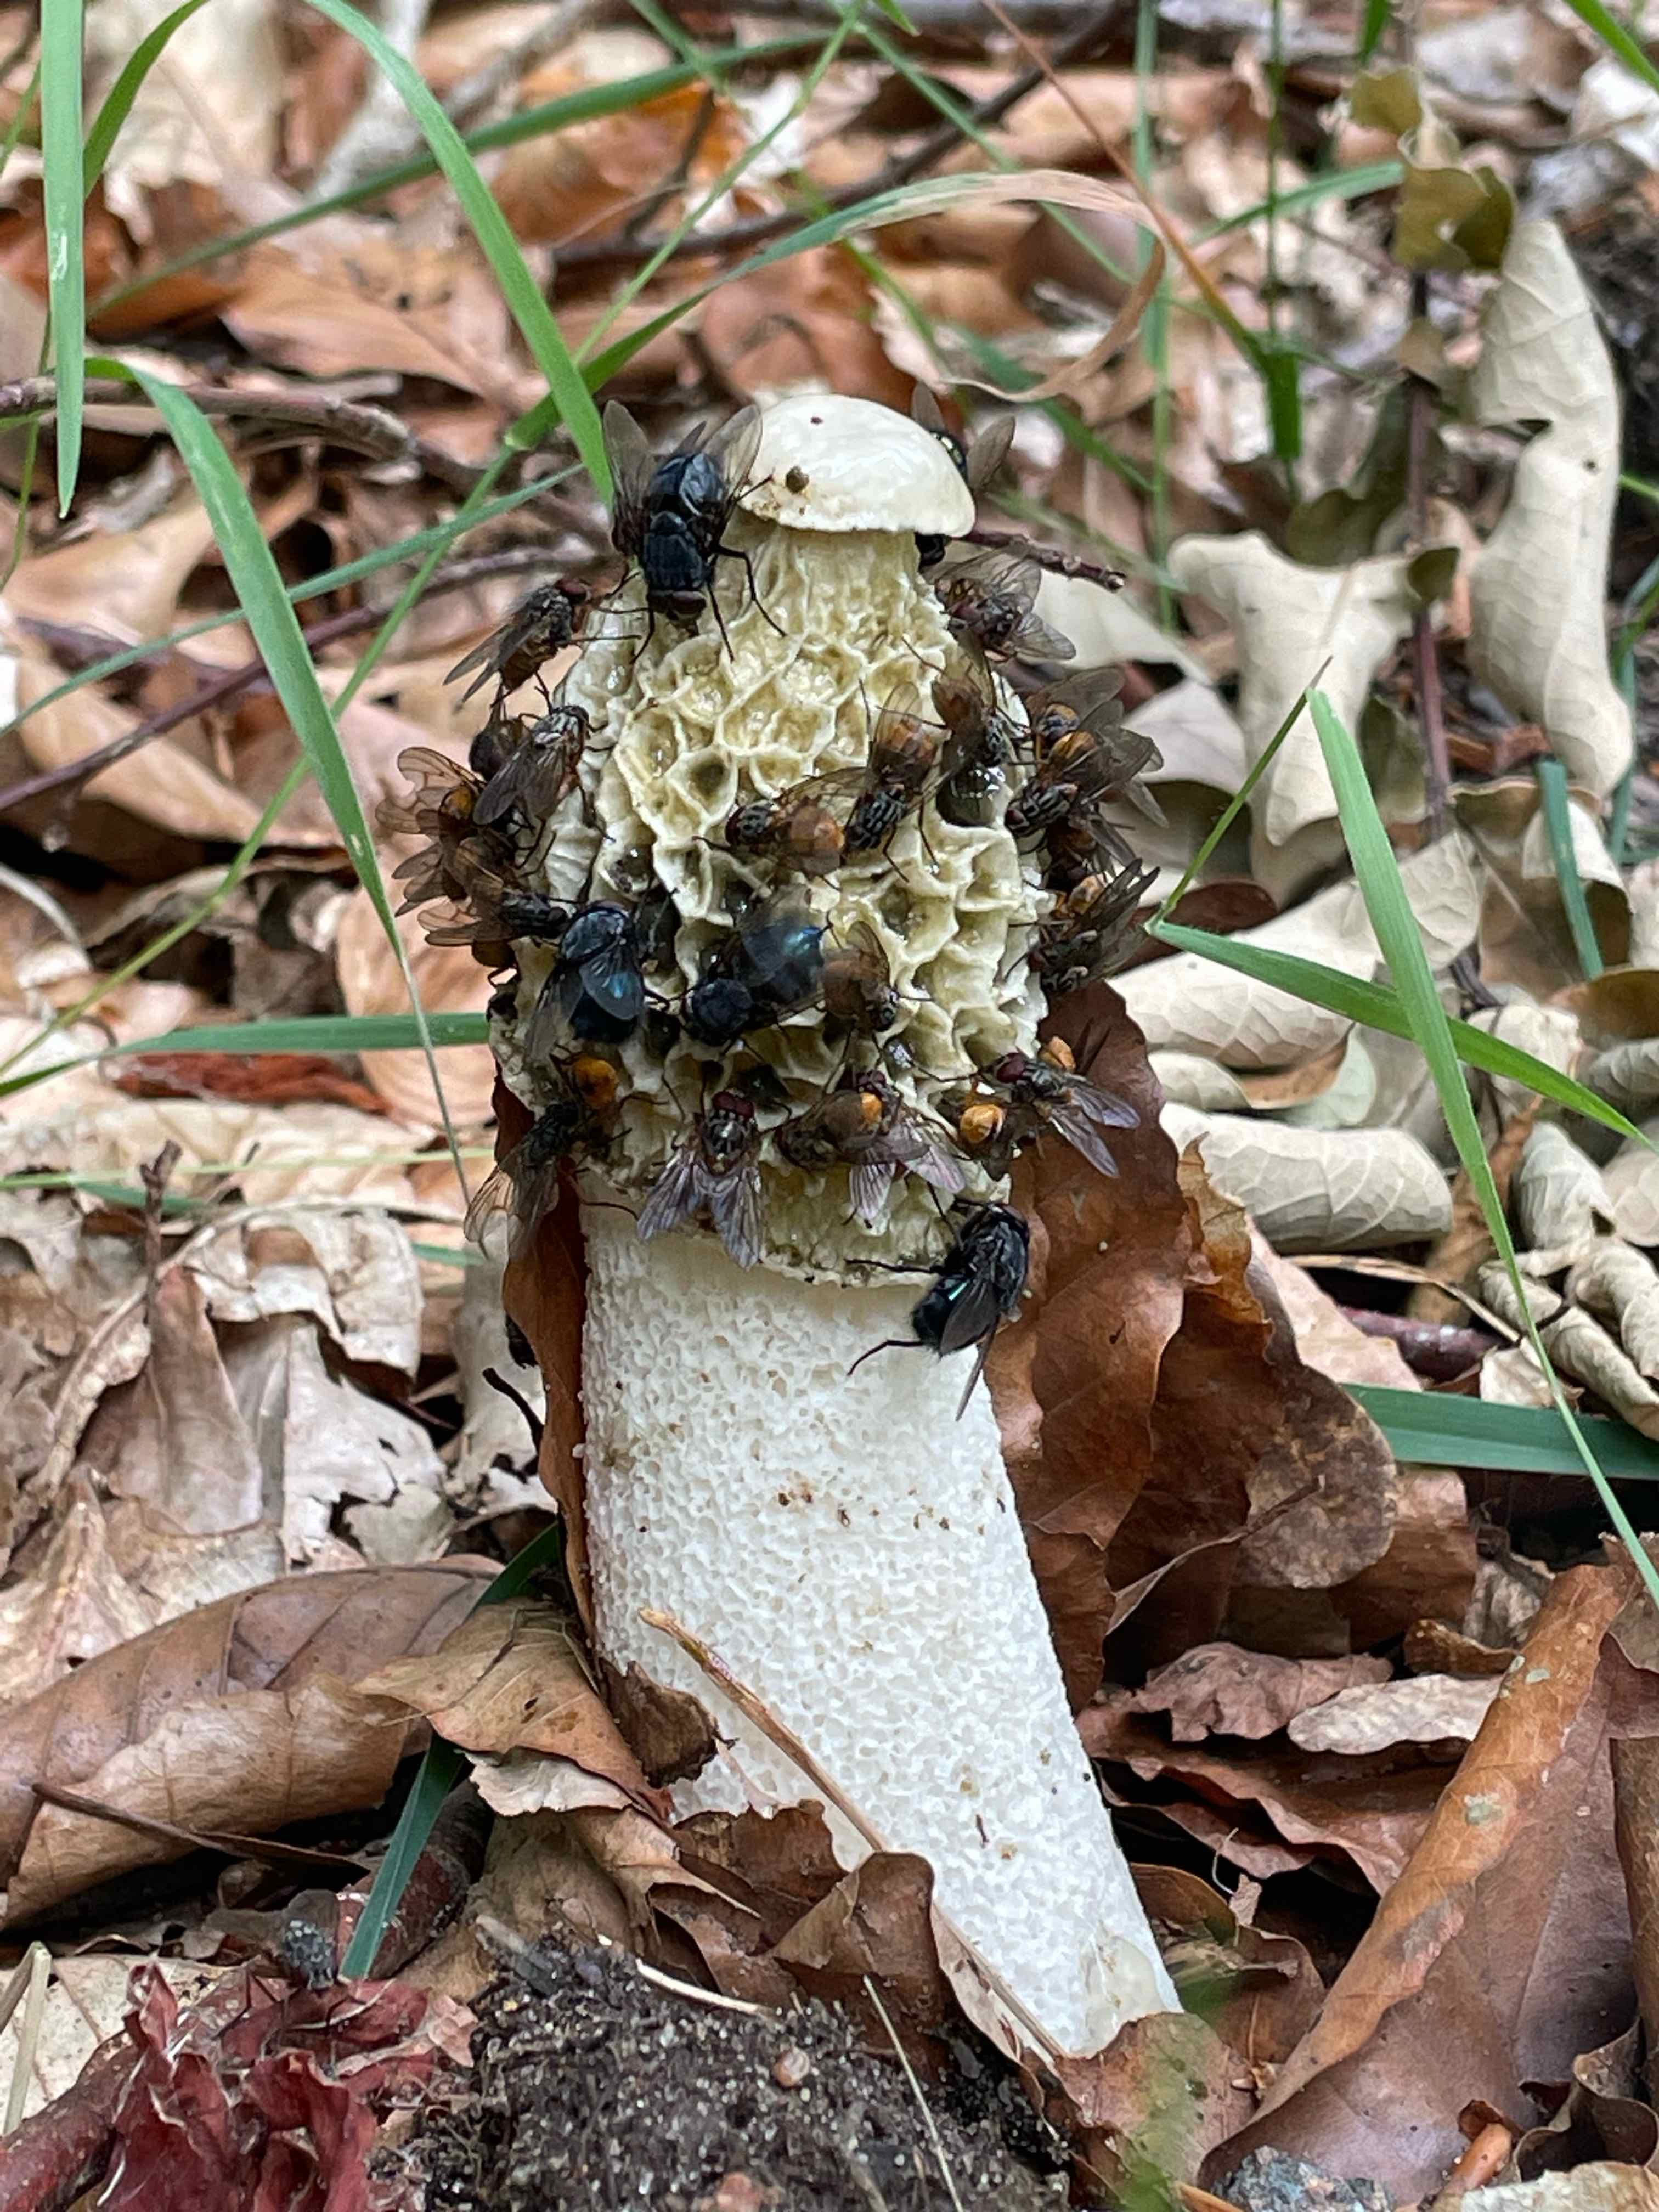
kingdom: Fungi
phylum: Basidiomycota
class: Agaricomycetes
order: Phallales
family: Phallaceae
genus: Phallus
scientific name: Phallus impudicus
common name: almindelig stinksvamp
